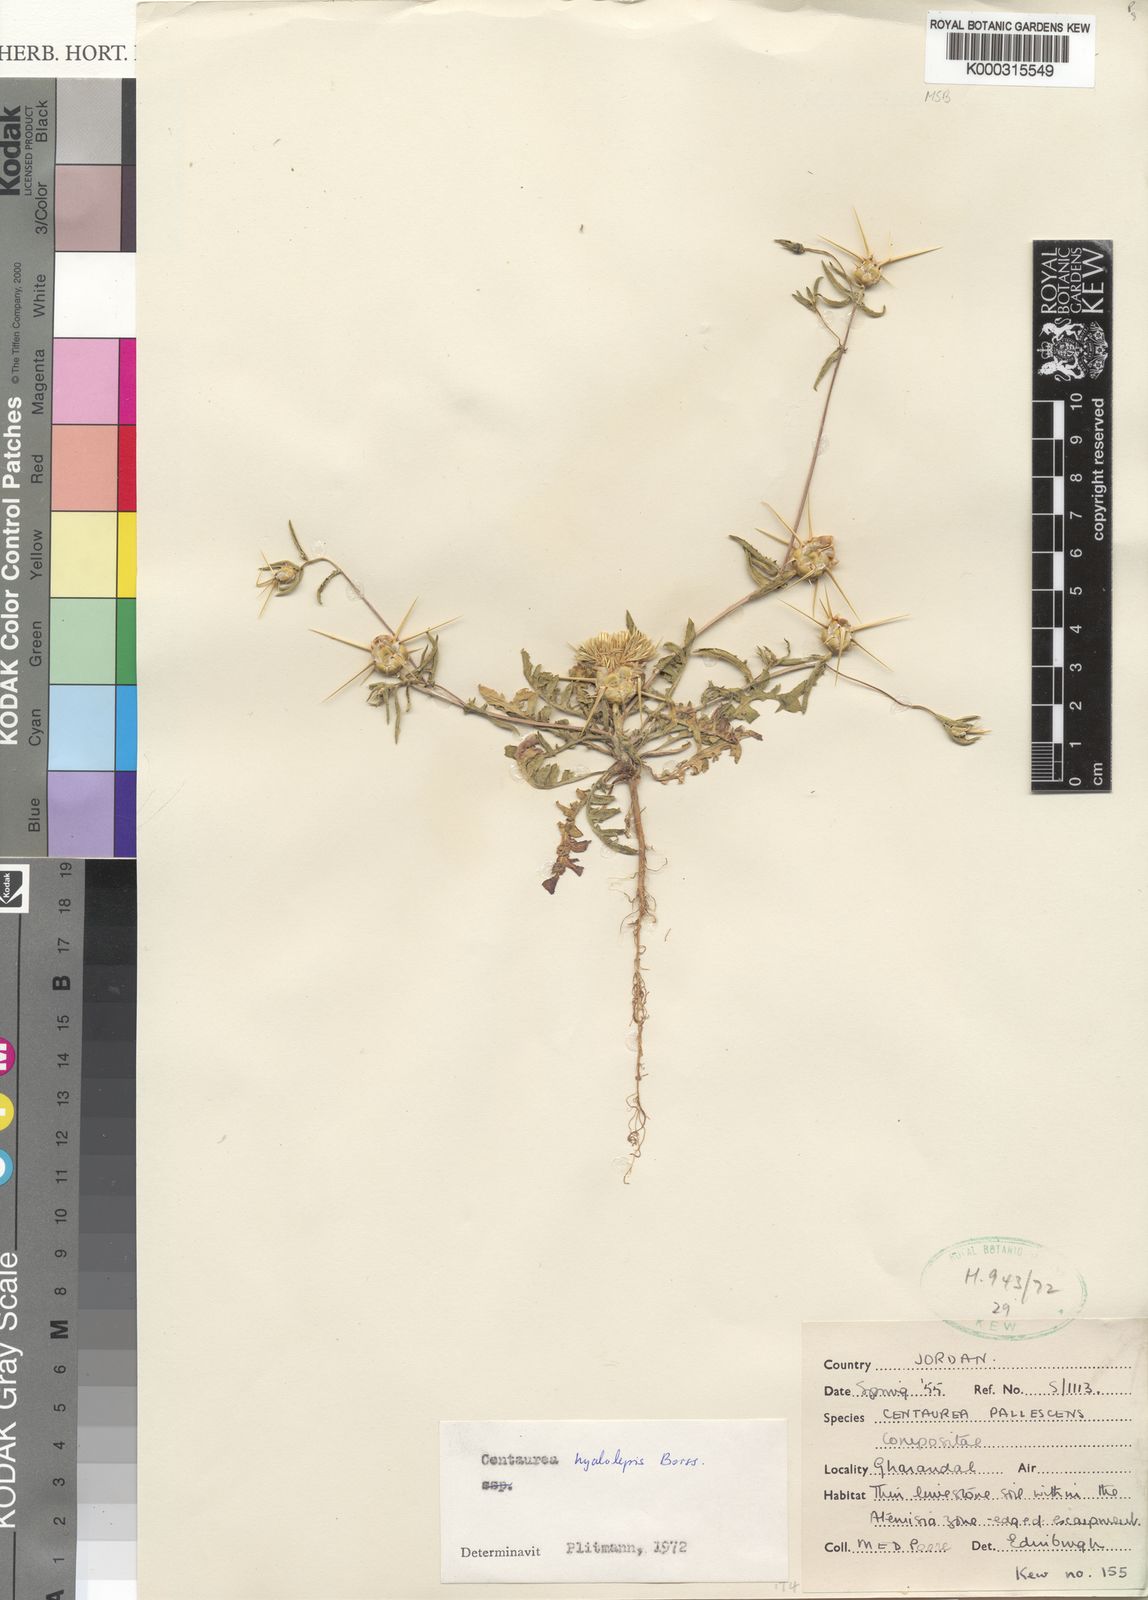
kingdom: Plantae
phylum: Tracheophyta
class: Magnoliopsida
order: Asterales
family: Asteraceae
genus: Centaurea
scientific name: Centaurea hyalolepis
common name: Eastern star-thistle
